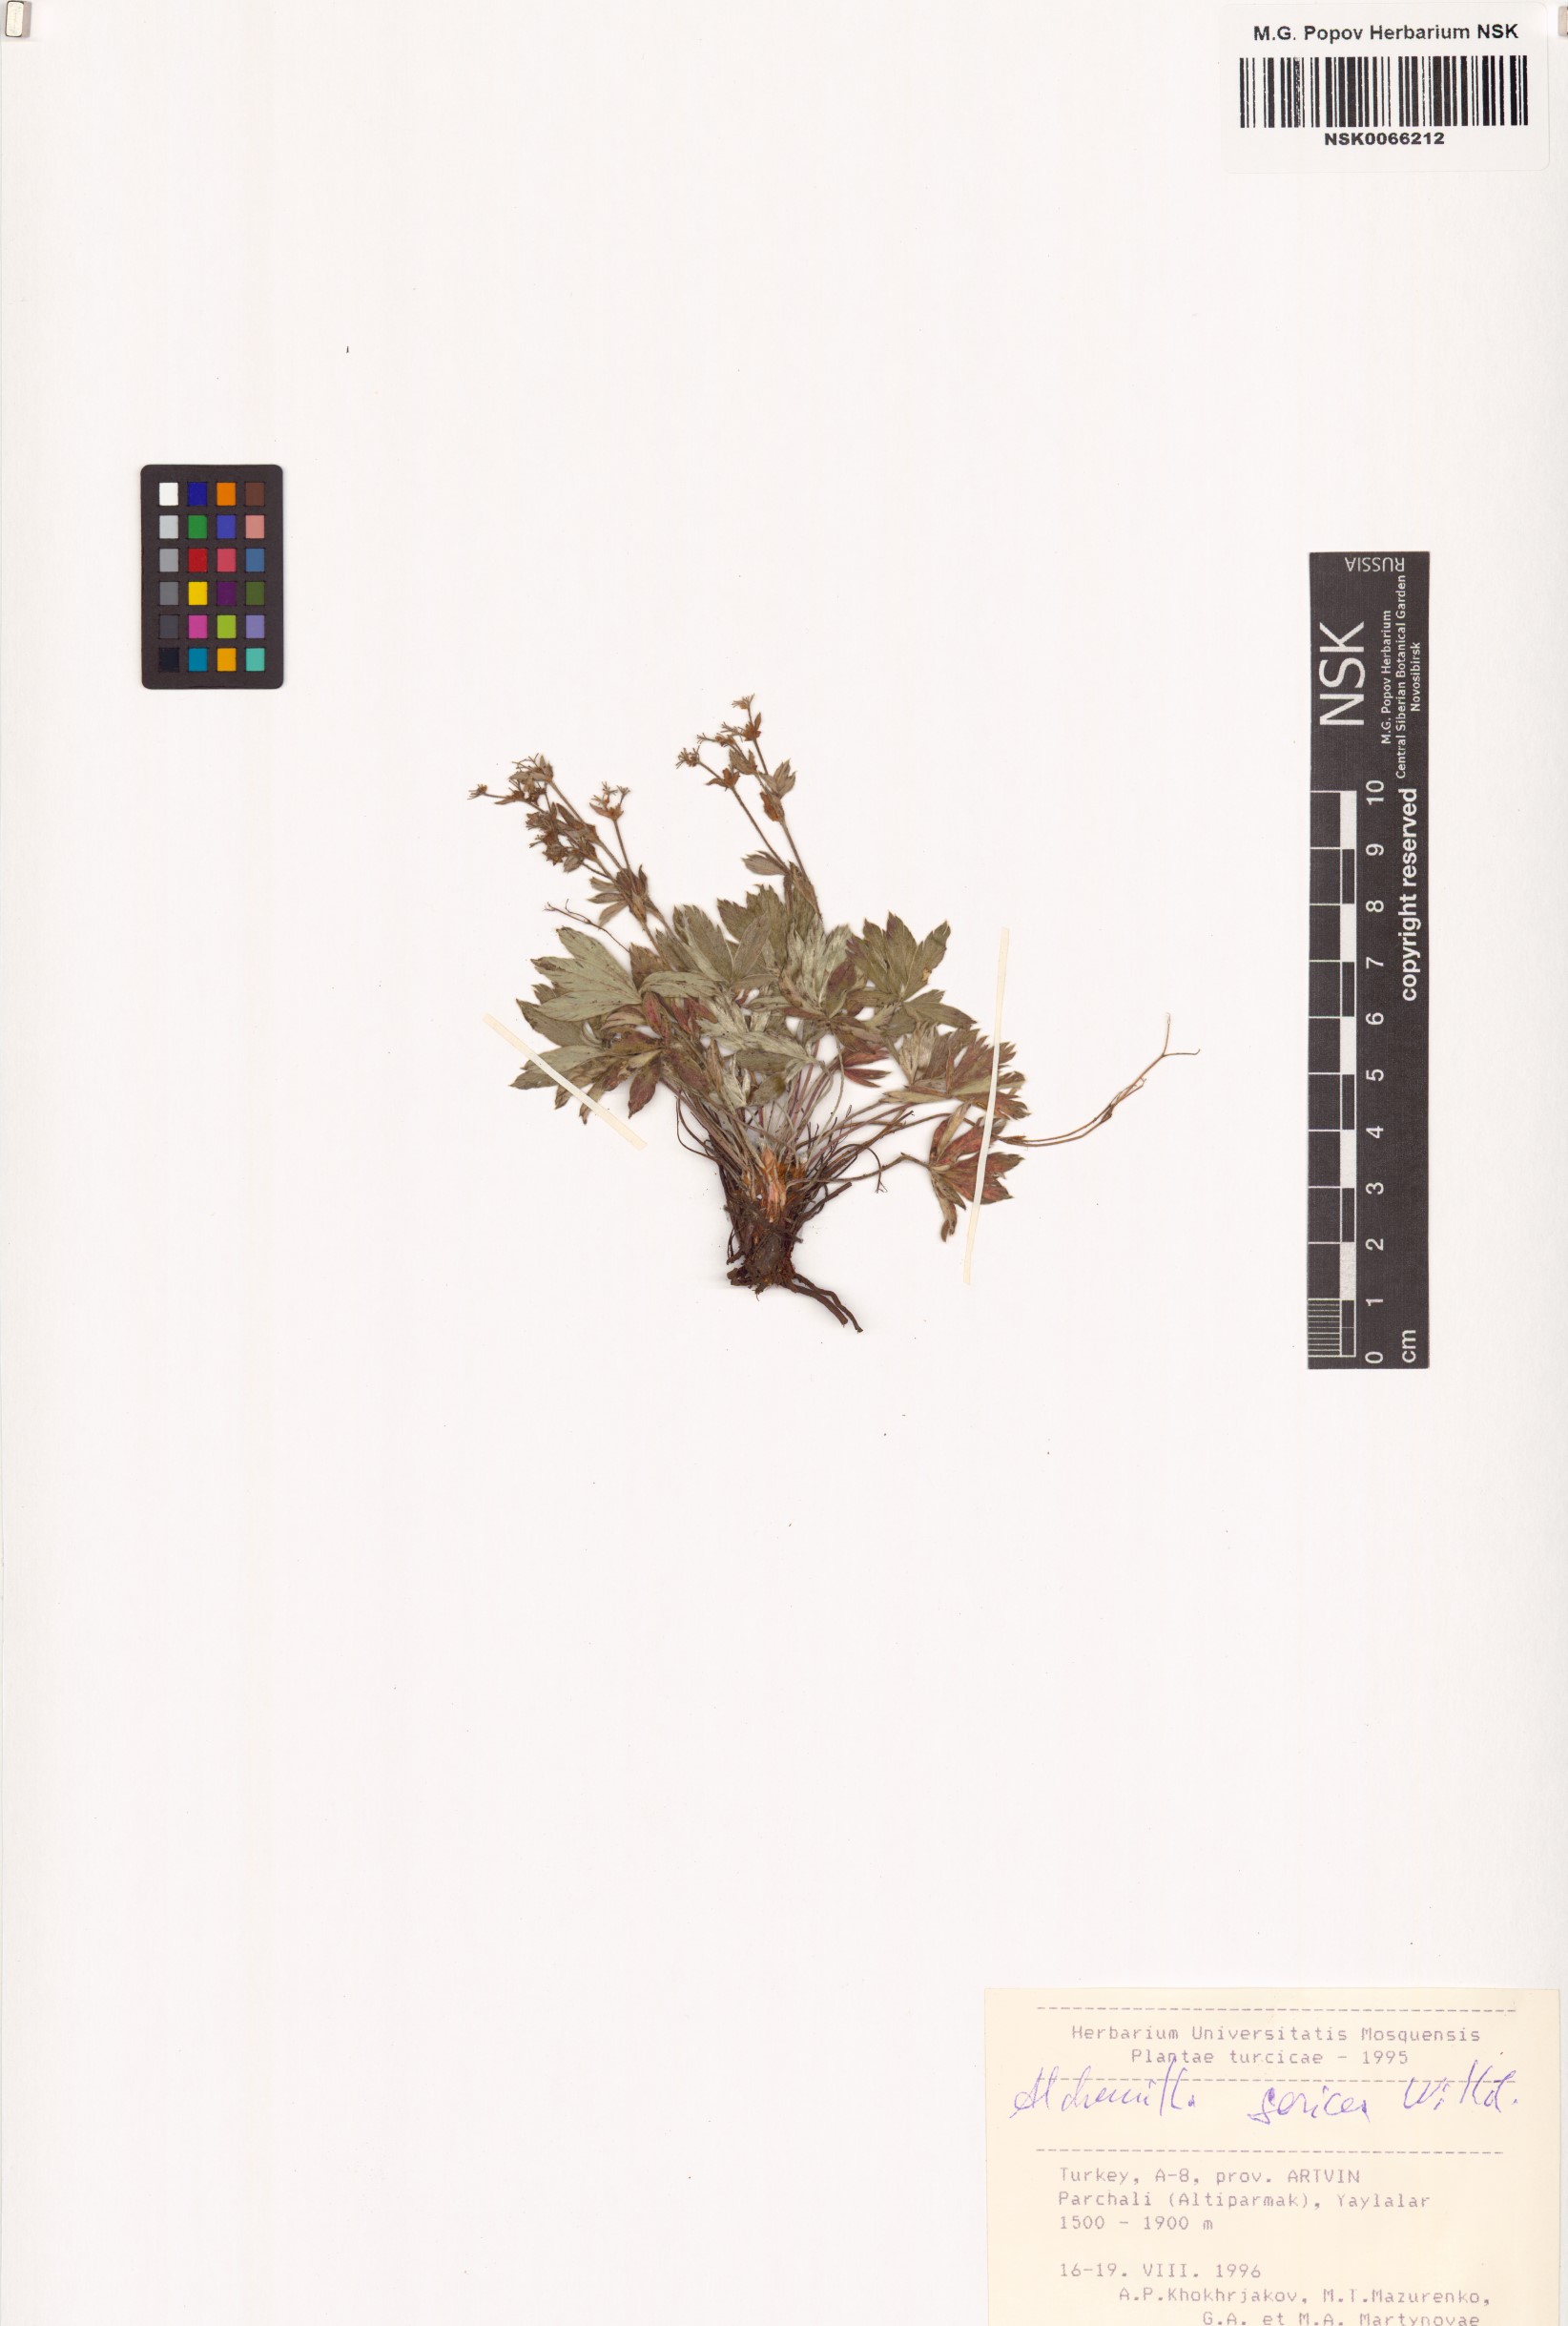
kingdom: Plantae
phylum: Tracheophyta
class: Magnoliopsida
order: Rosales
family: Rosaceae
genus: Alchemilla
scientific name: Alchemilla sericea
